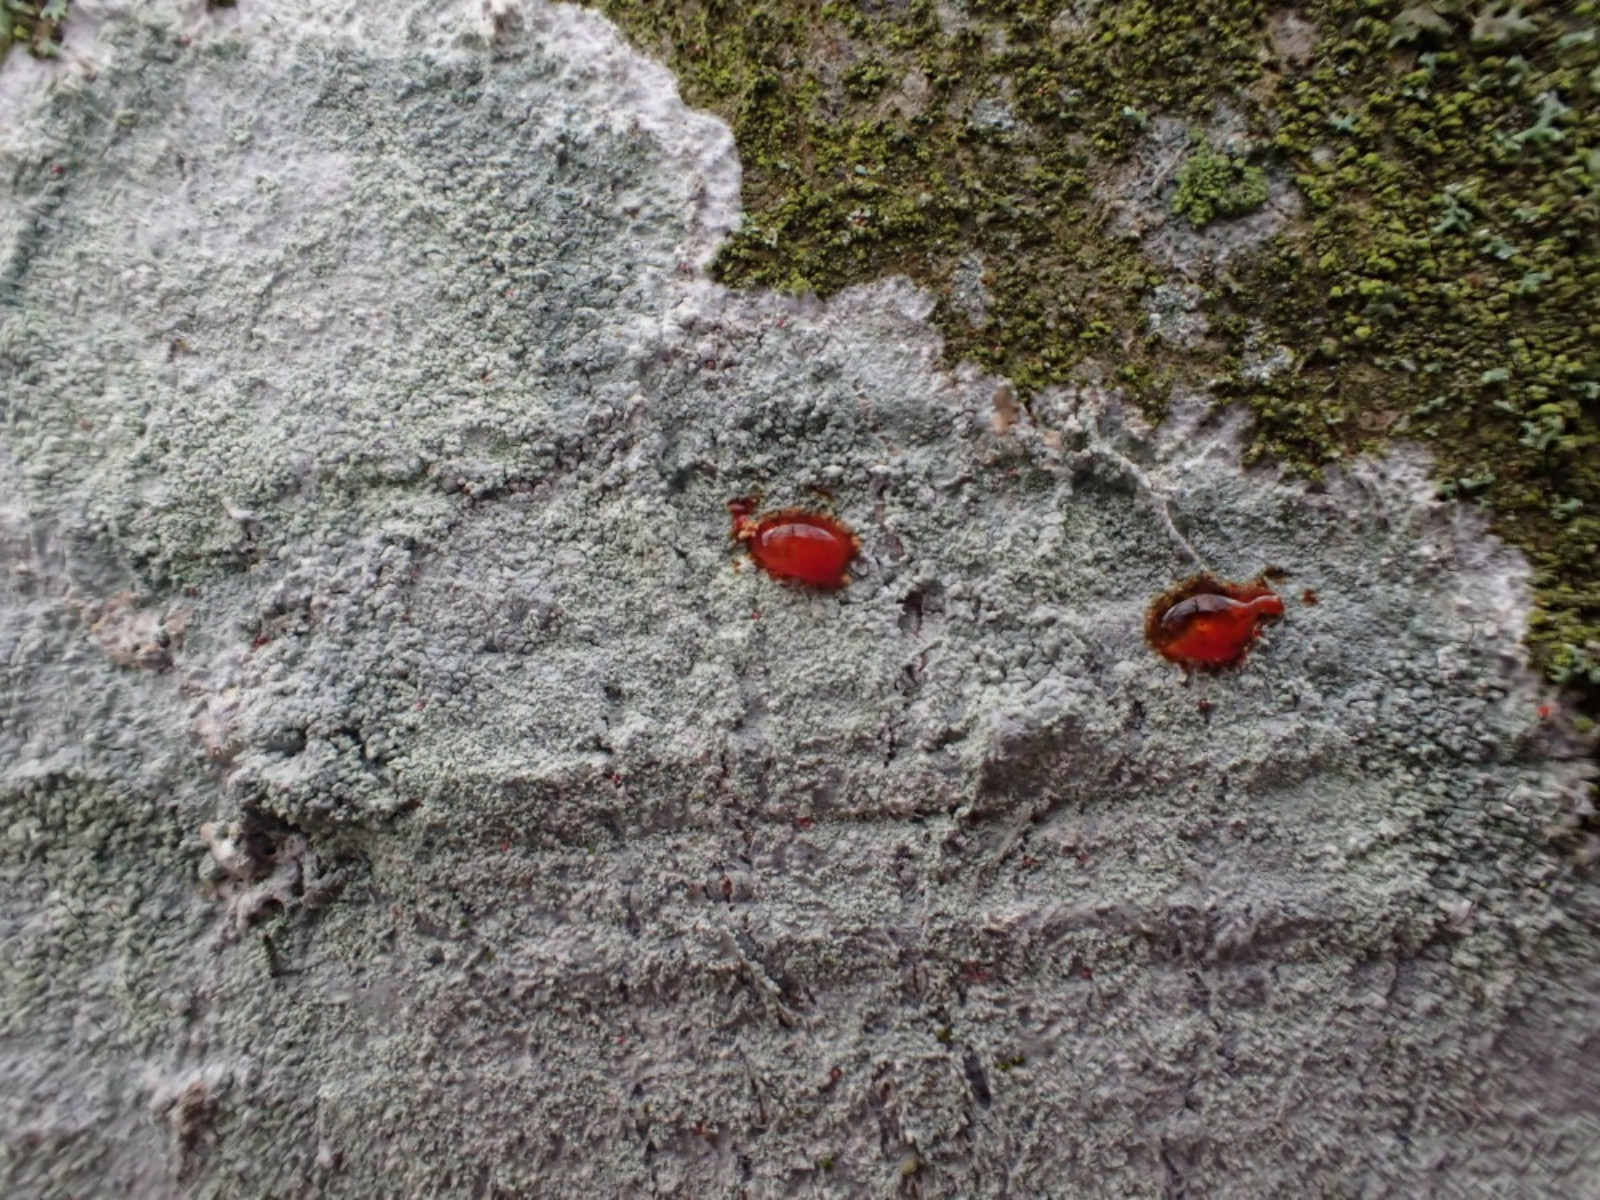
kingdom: Fungi
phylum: Ascomycota
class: Lecanoromycetes
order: Ostropales
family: Phlyctidaceae
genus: Phlyctis
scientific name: Phlyctis argena
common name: almindelig sølvlav
